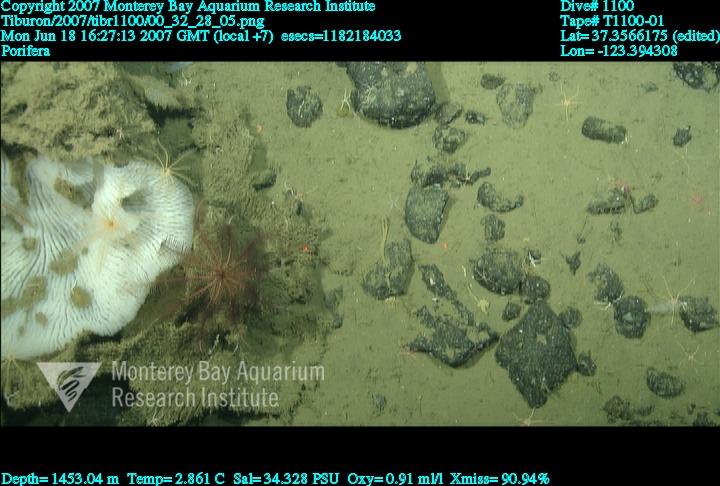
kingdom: Animalia
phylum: Porifera
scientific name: Porifera
